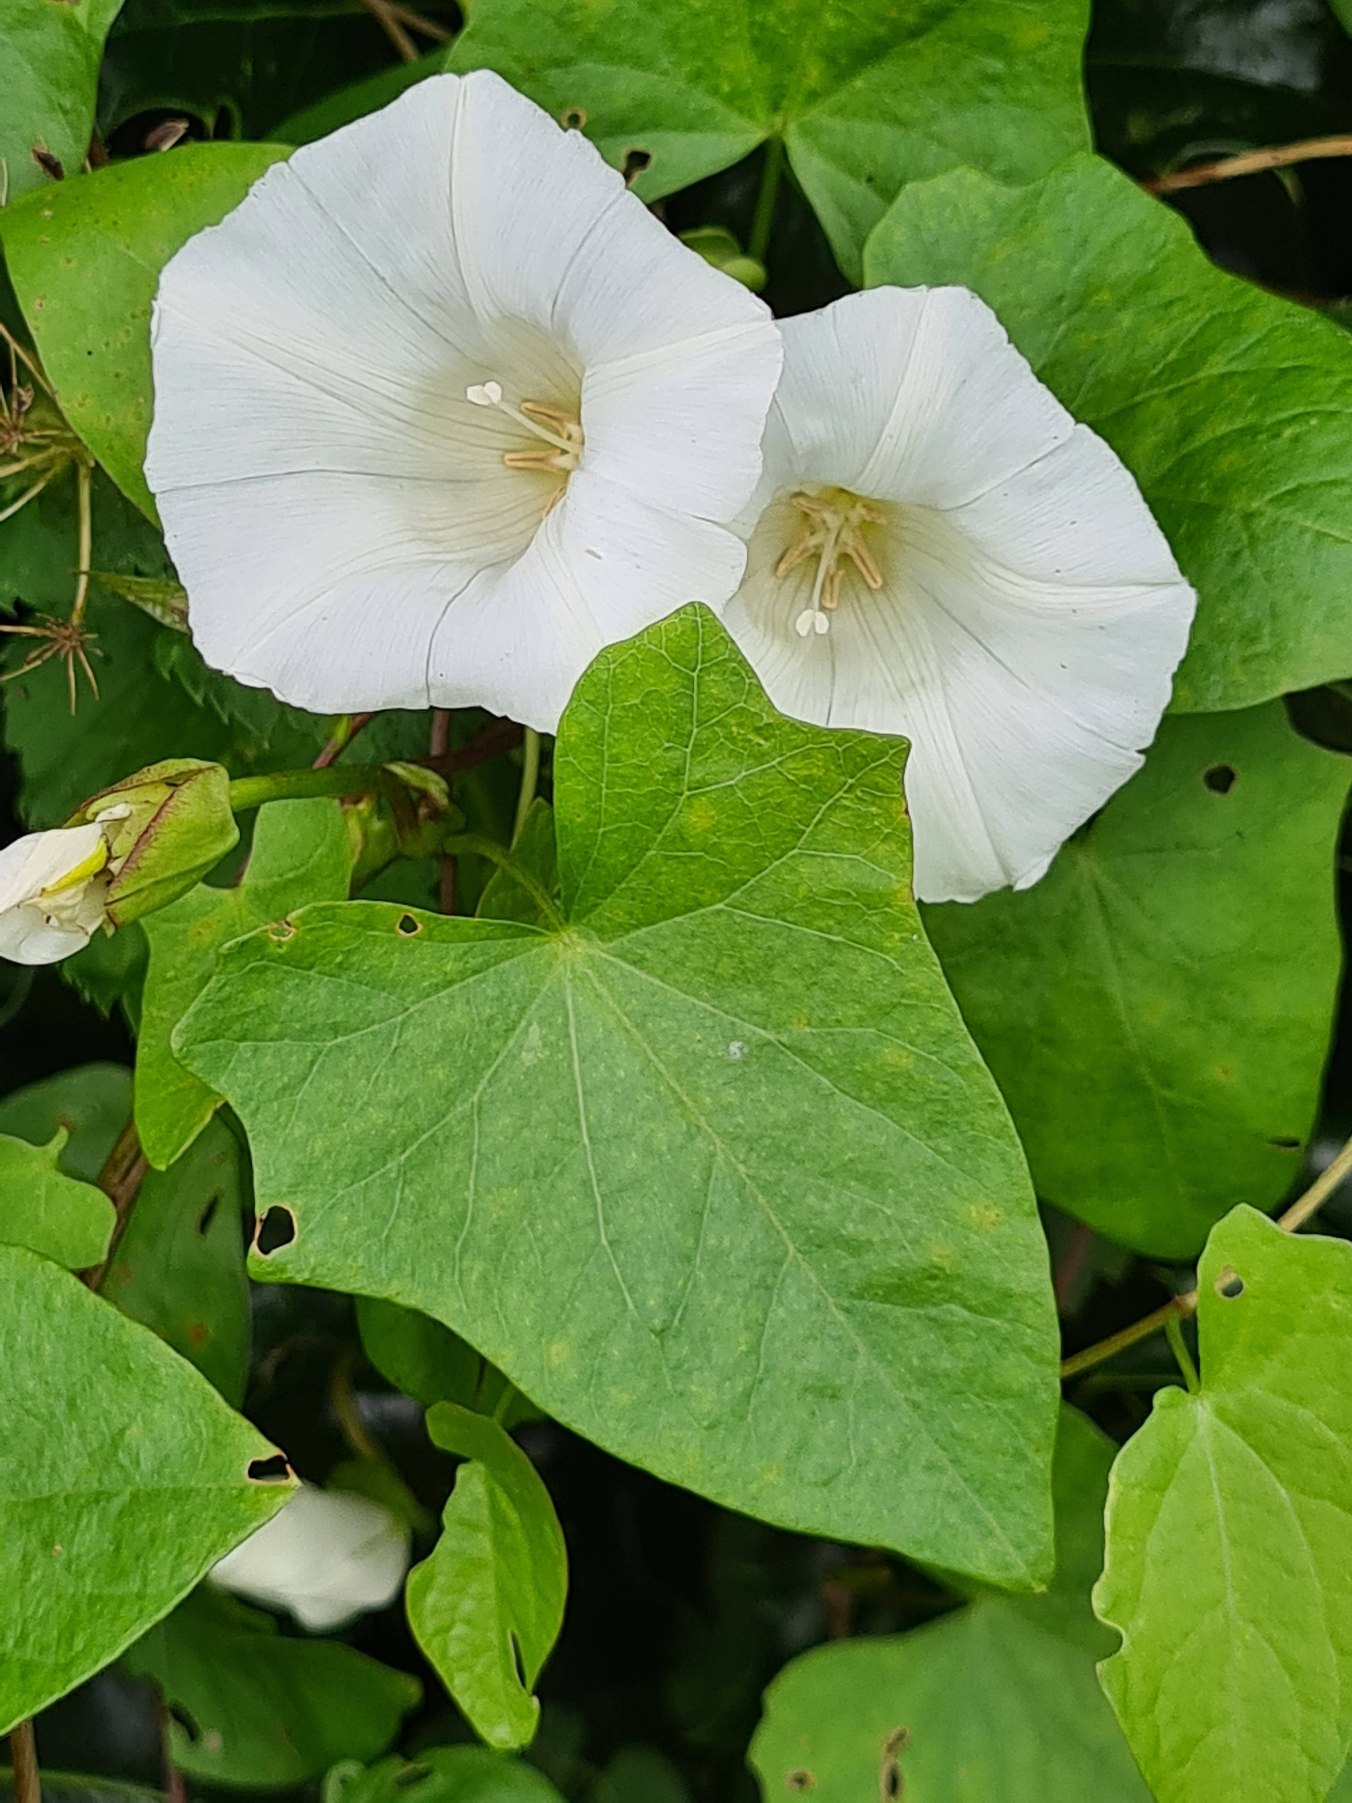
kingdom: Plantae
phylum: Tracheophyta
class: Magnoliopsida
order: Solanales
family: Convolvulaceae
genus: Calystegia
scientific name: Calystegia sepium
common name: Gærde-snerle
